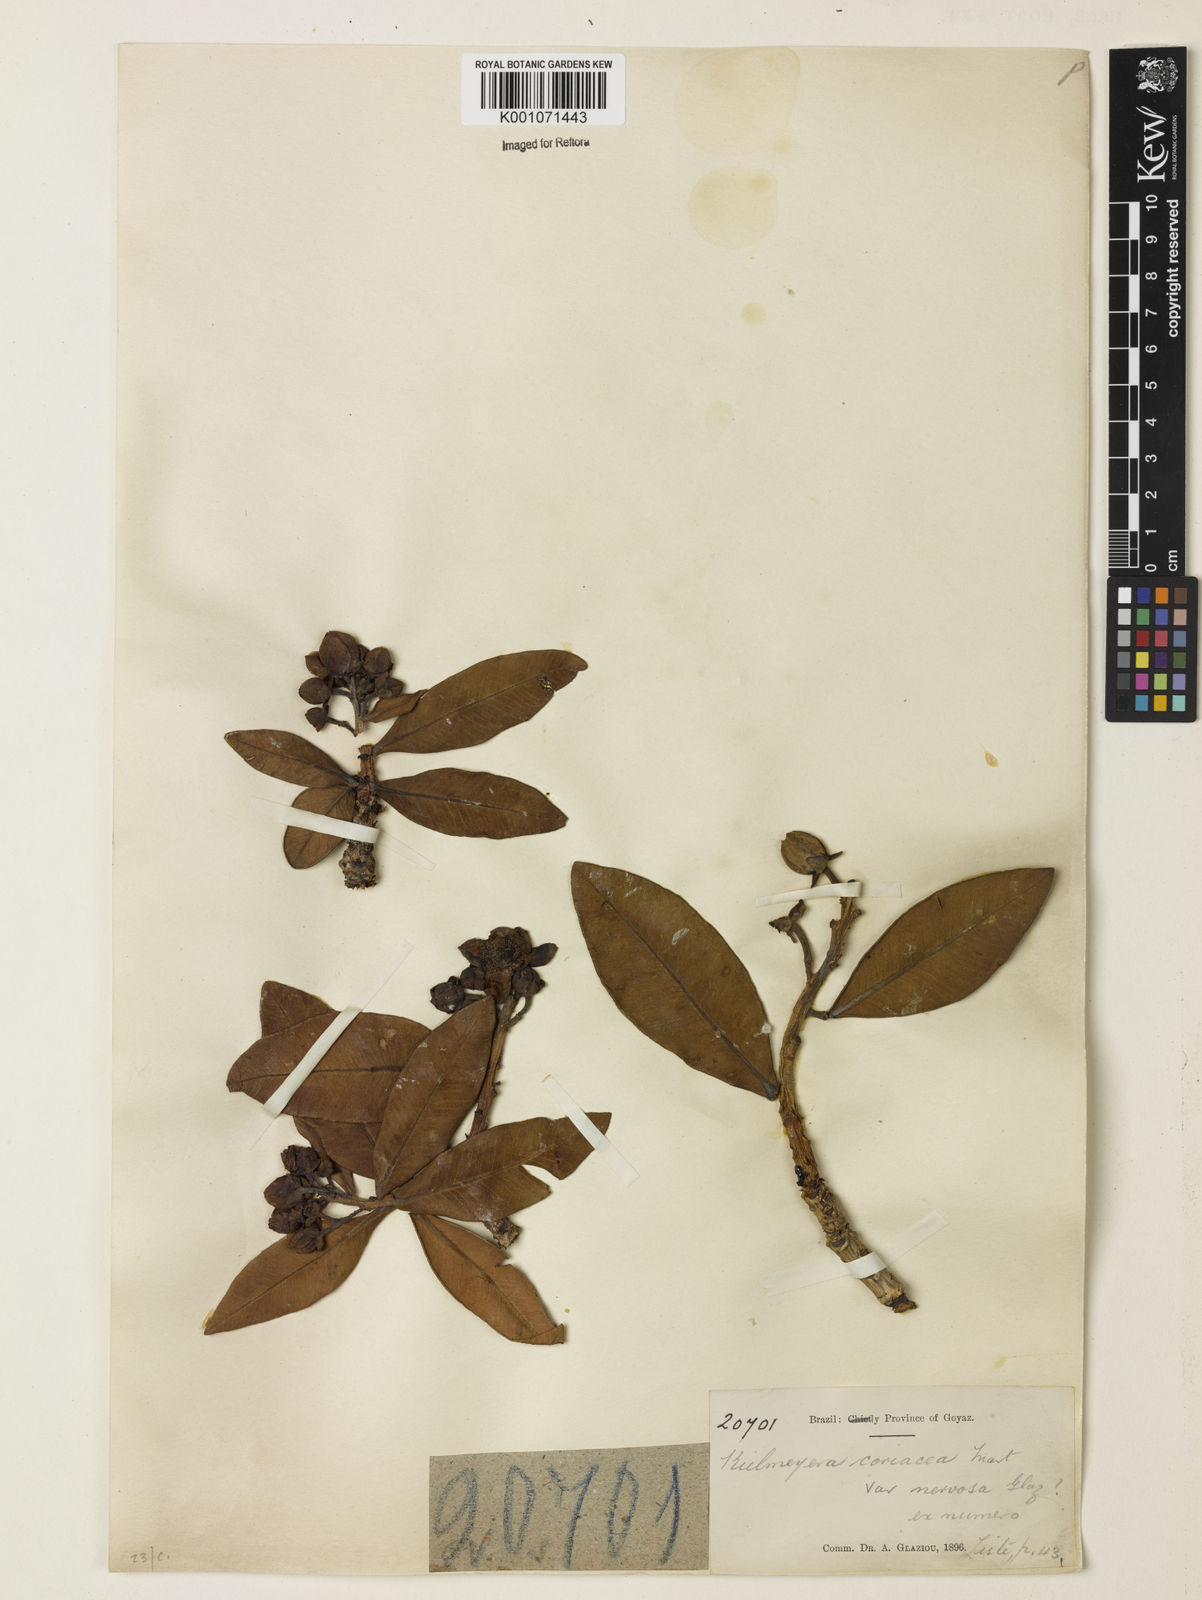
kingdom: Plantae
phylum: Tracheophyta
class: Magnoliopsida
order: Malpighiales
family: Calophyllaceae
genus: Kielmeyera
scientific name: Kielmeyera coriacea
